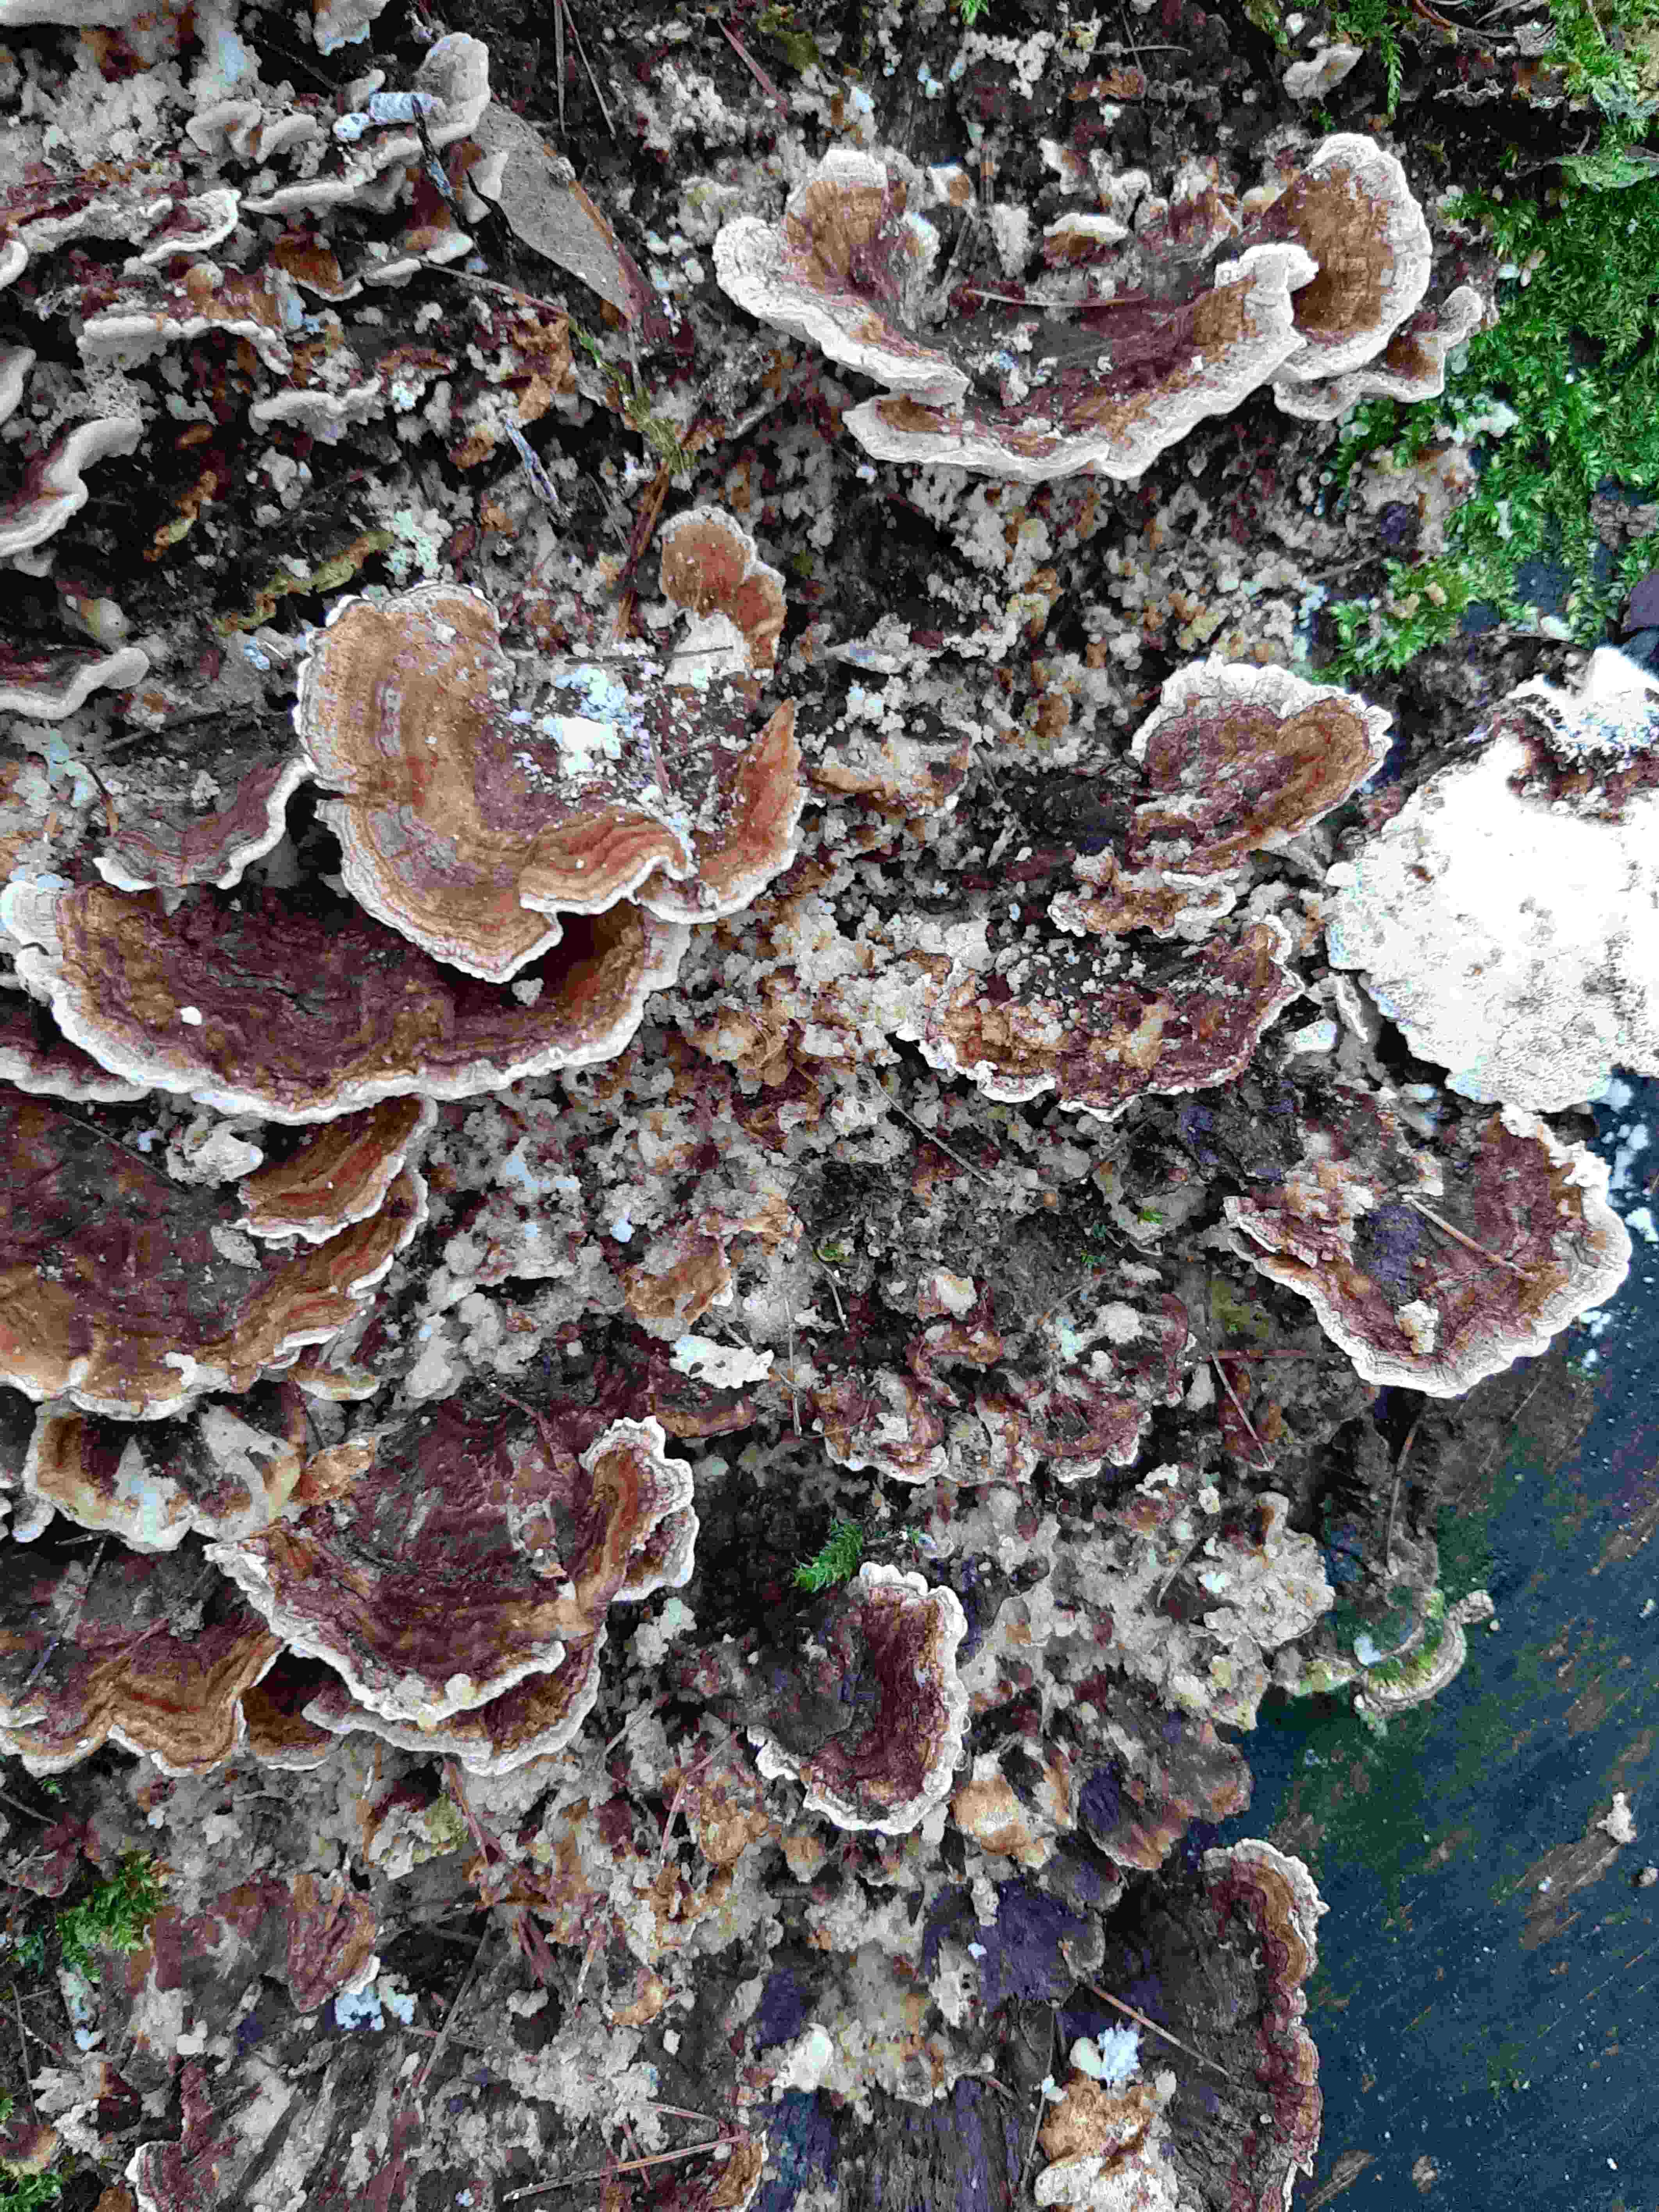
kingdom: Fungi
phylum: Basidiomycota
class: Agaricomycetes
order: Polyporales
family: Polyporaceae
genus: Trametes
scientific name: Trametes versicolor
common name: broget læderporesvamp
